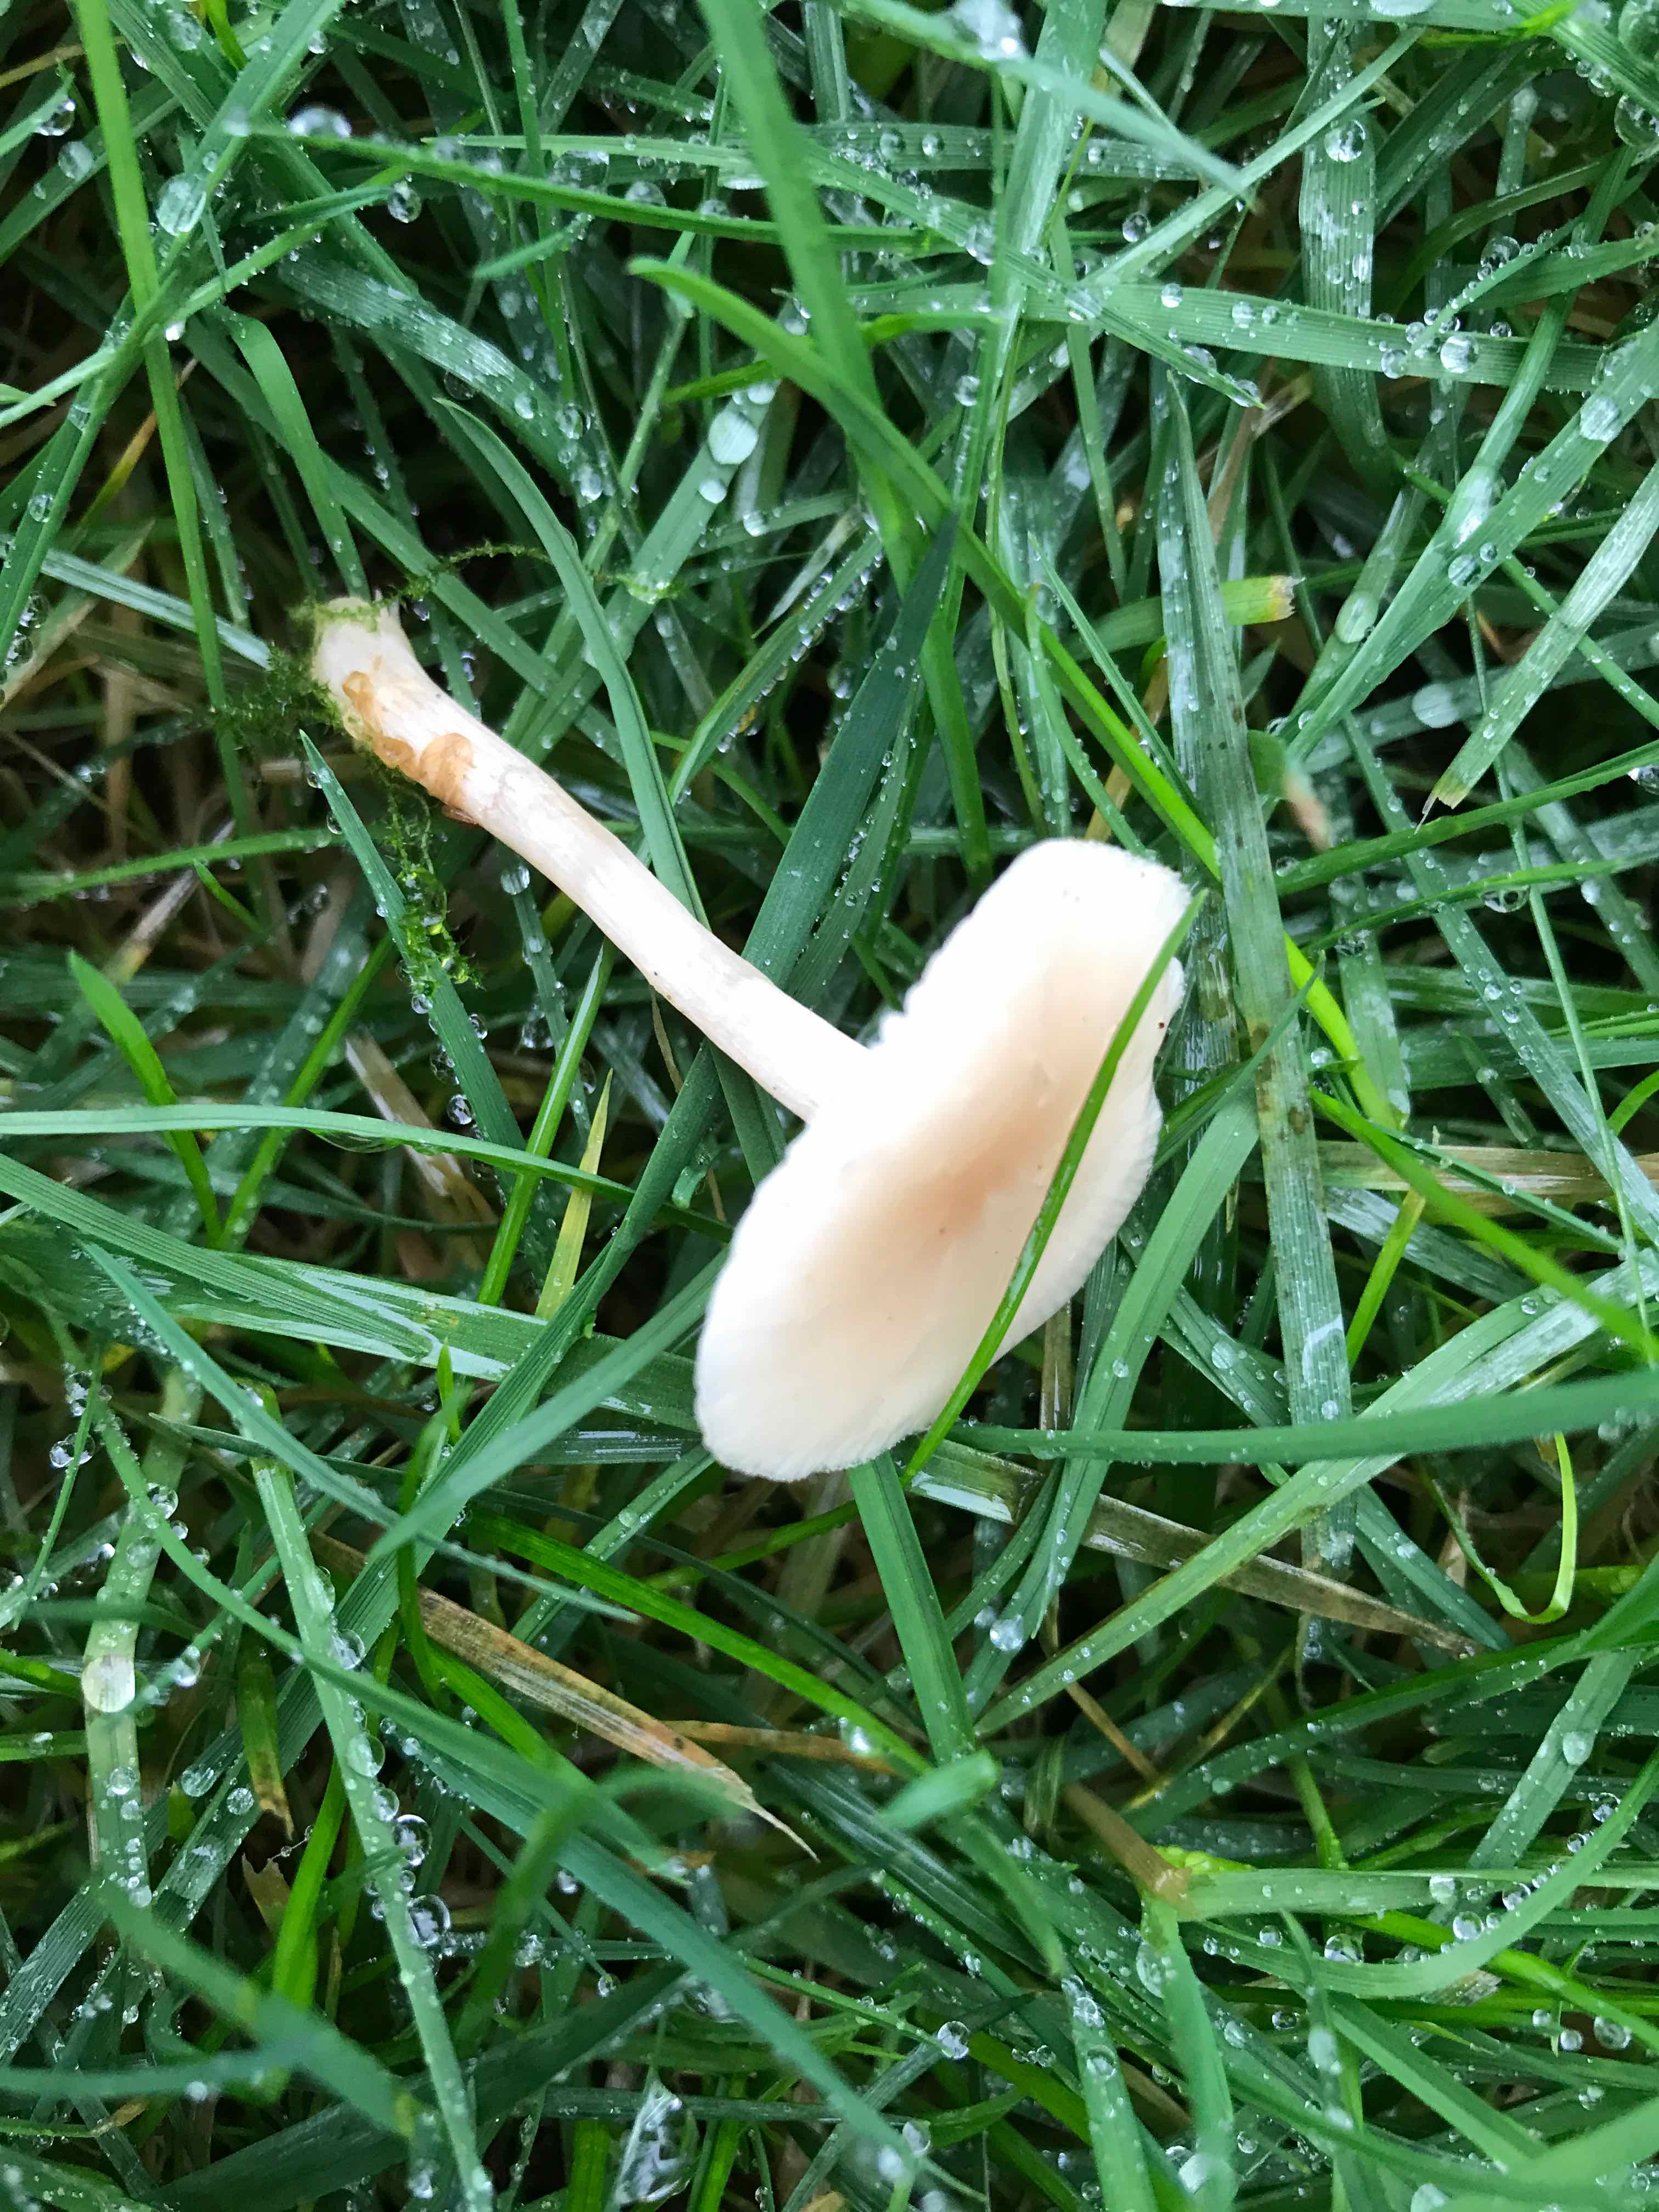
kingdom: Fungi
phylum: Basidiomycota
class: Agaricomycetes
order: Agaricales
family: Tricholomataceae
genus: Clitocybe
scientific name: Clitocybe fragrans
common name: vellugtende tragthat
